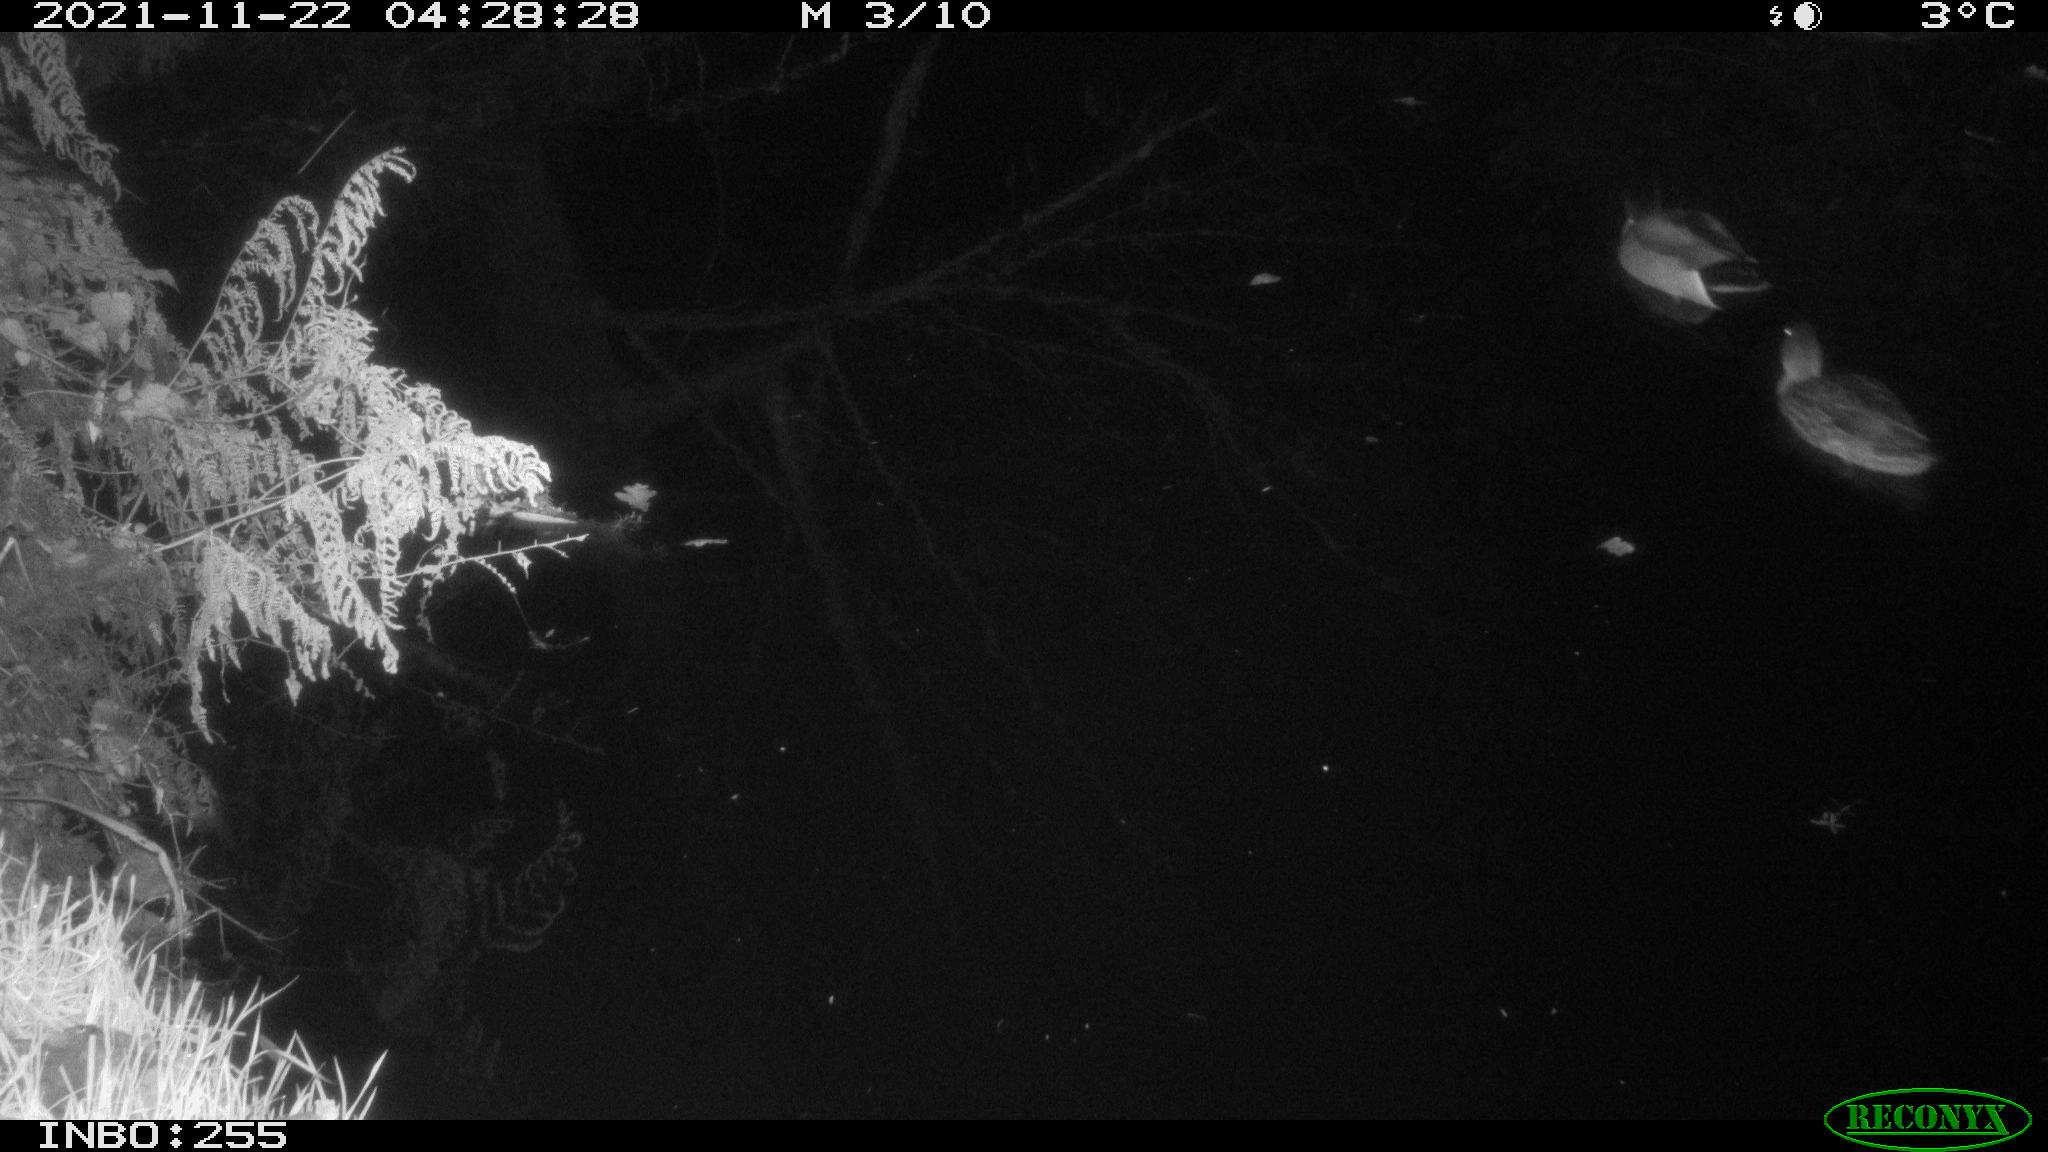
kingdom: Animalia
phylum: Chordata
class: Aves
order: Anseriformes
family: Anatidae
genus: Anas
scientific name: Anas platyrhynchos
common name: Mallard
